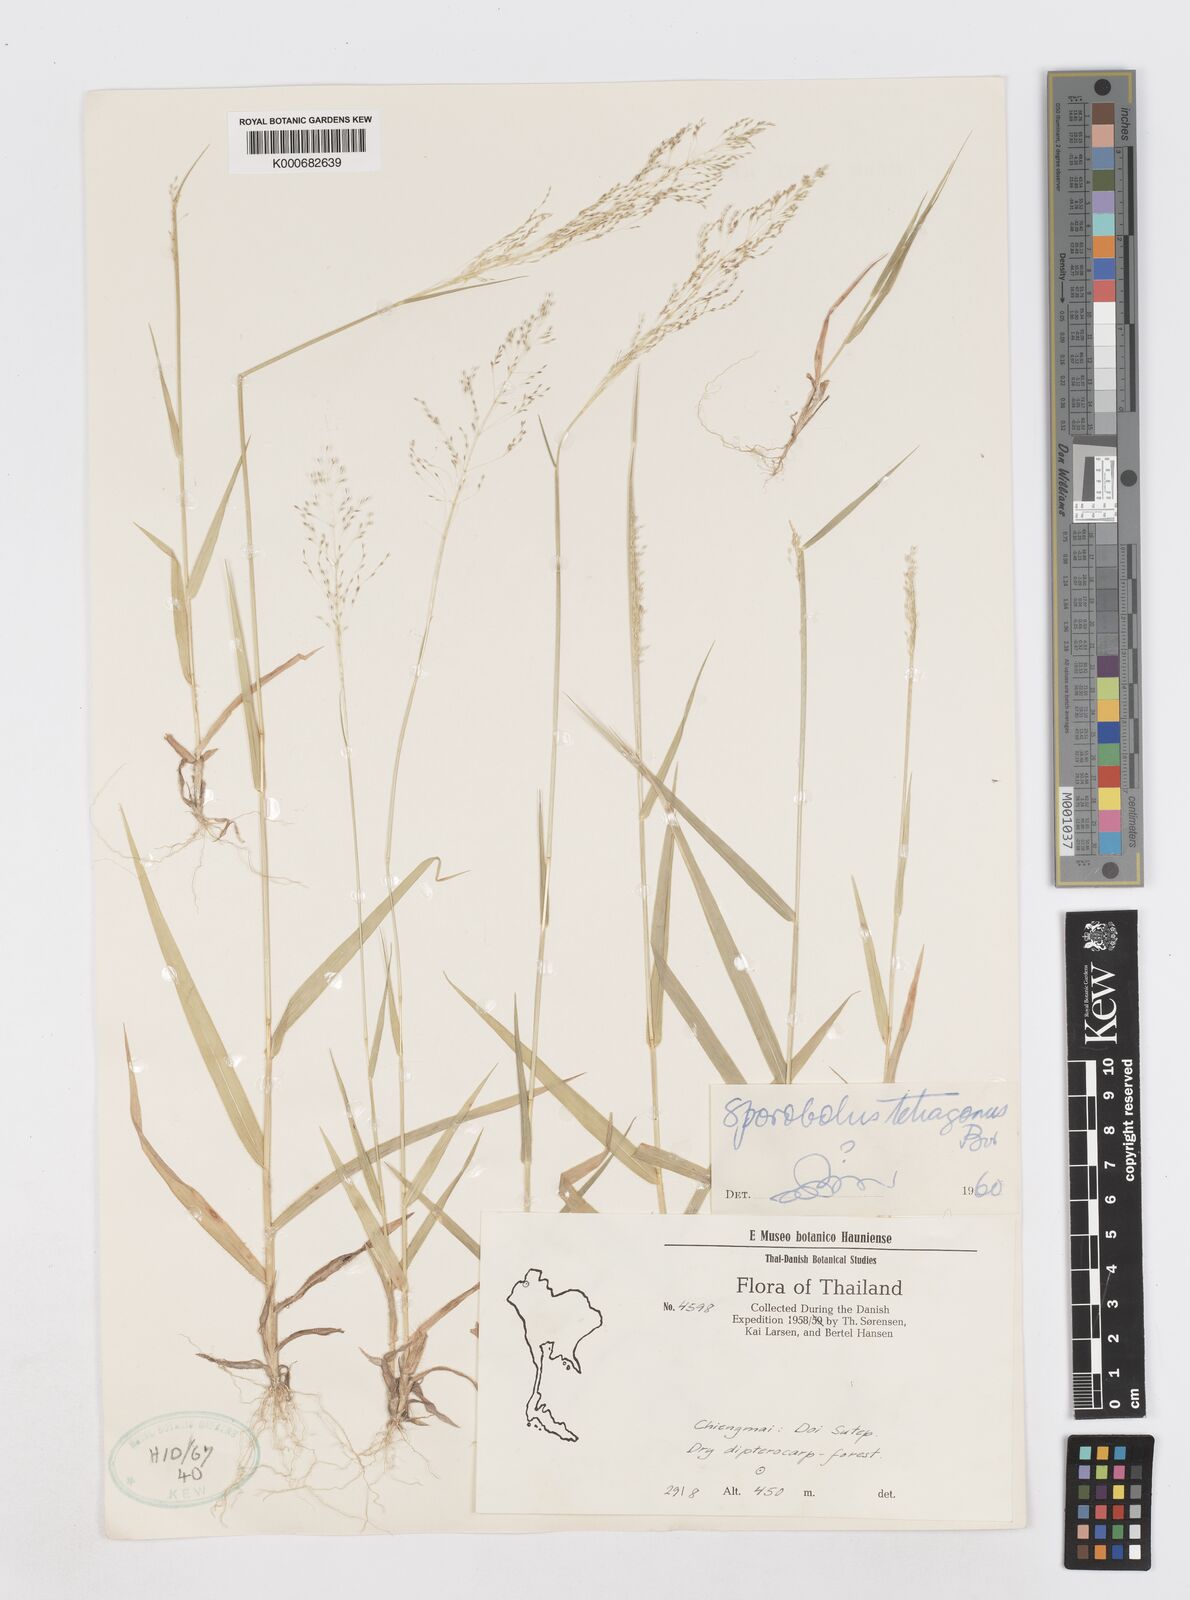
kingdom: Plantae
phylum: Tracheophyta
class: Liliopsida
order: Poales
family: Poaceae
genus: Sporobolus
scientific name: Sporobolus tetragonus
